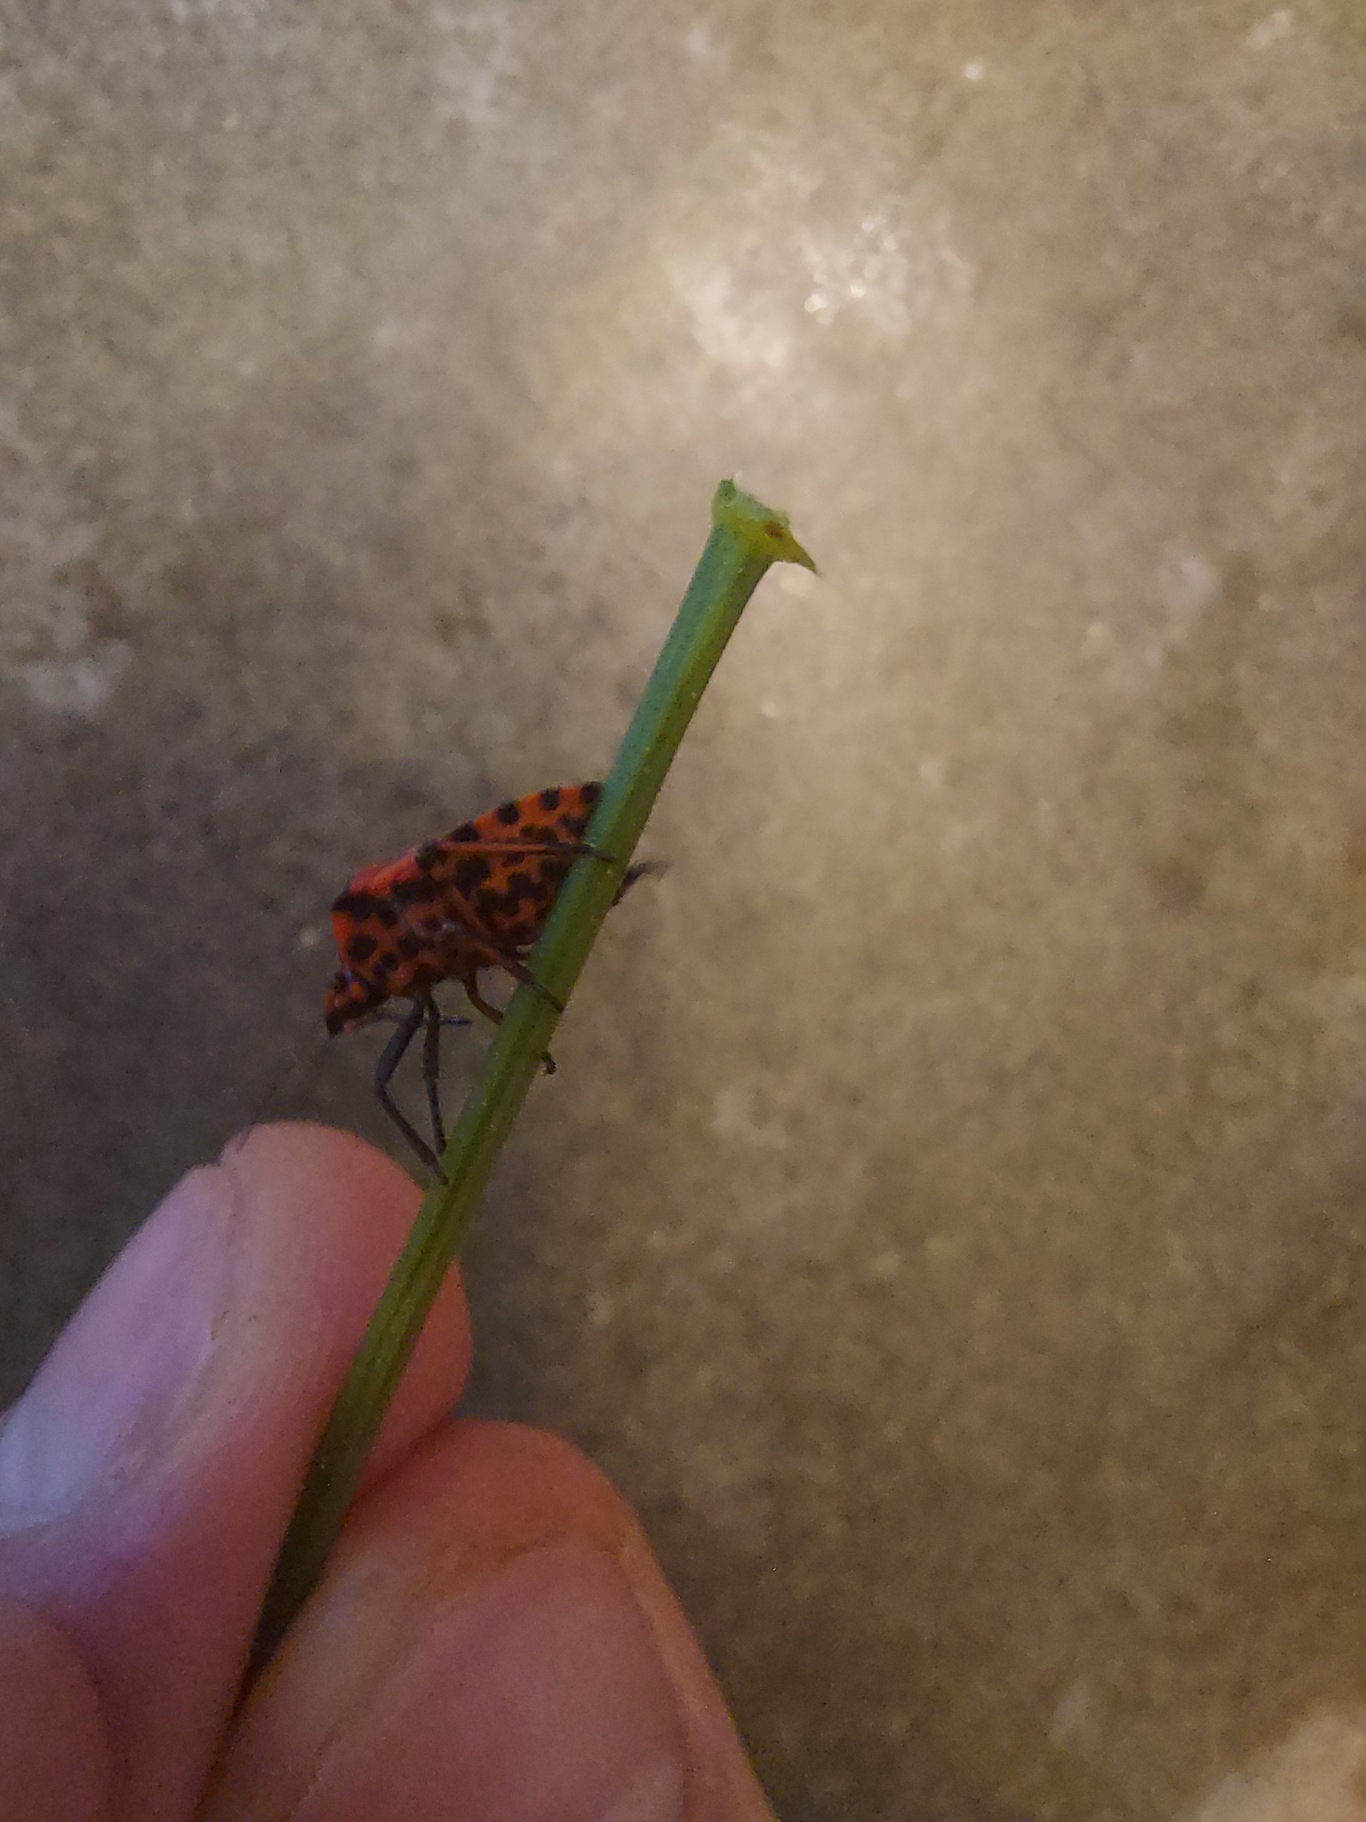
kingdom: Animalia
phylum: Arthropoda
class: Insecta
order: Hemiptera
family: Pentatomidae
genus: Graphosoma
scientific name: Graphosoma italicum
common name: Stribetæge
